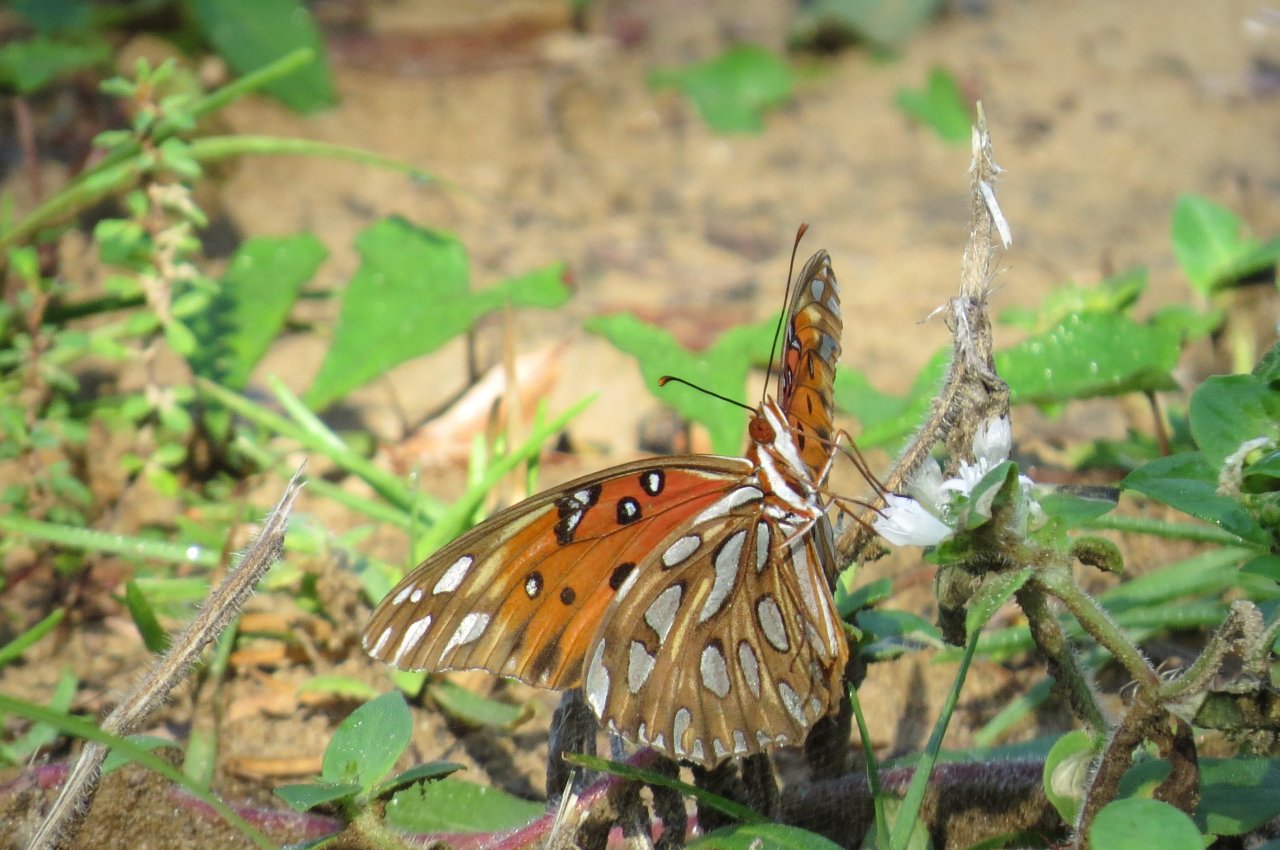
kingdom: Animalia
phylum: Arthropoda
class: Insecta
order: Lepidoptera
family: Nymphalidae
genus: Dione
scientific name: Dione vanillae
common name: Gulf Fritillary
